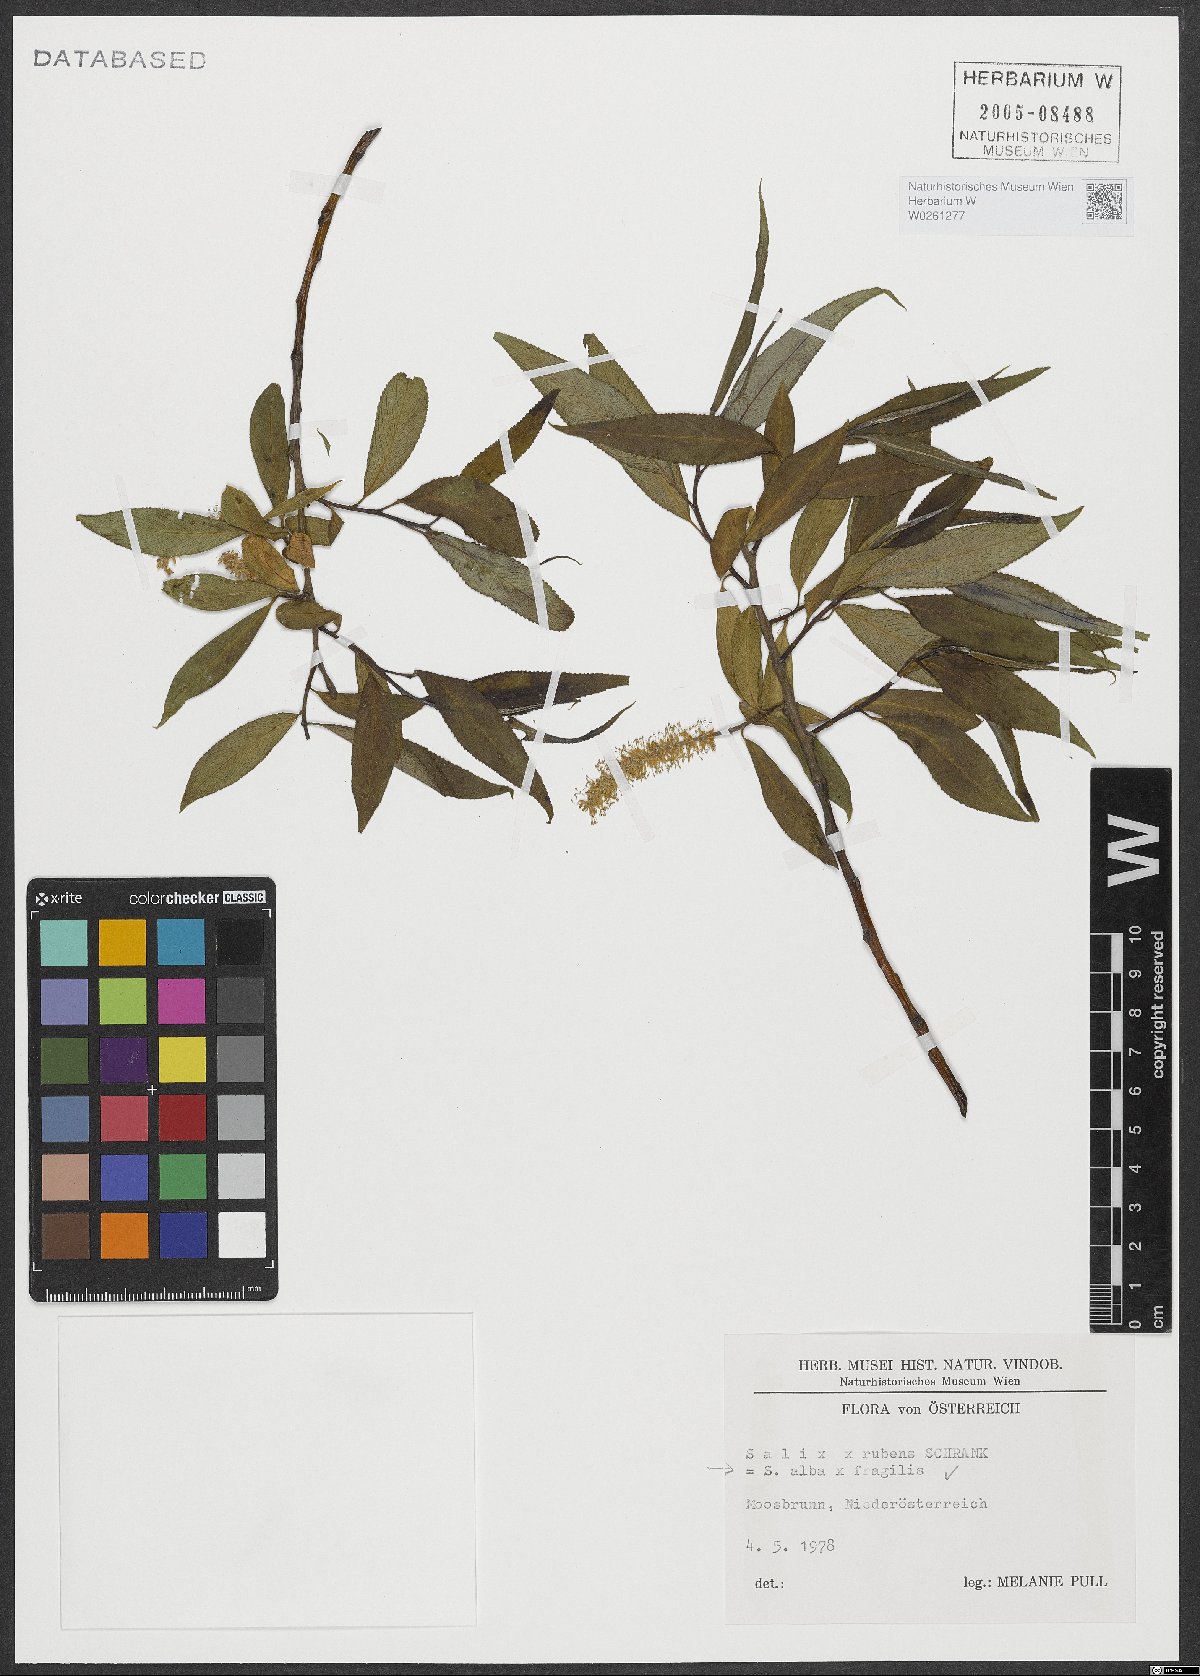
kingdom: Plantae
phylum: Tracheophyta
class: Magnoliopsida
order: Malpighiales
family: Salicaceae
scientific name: Salicaceae
